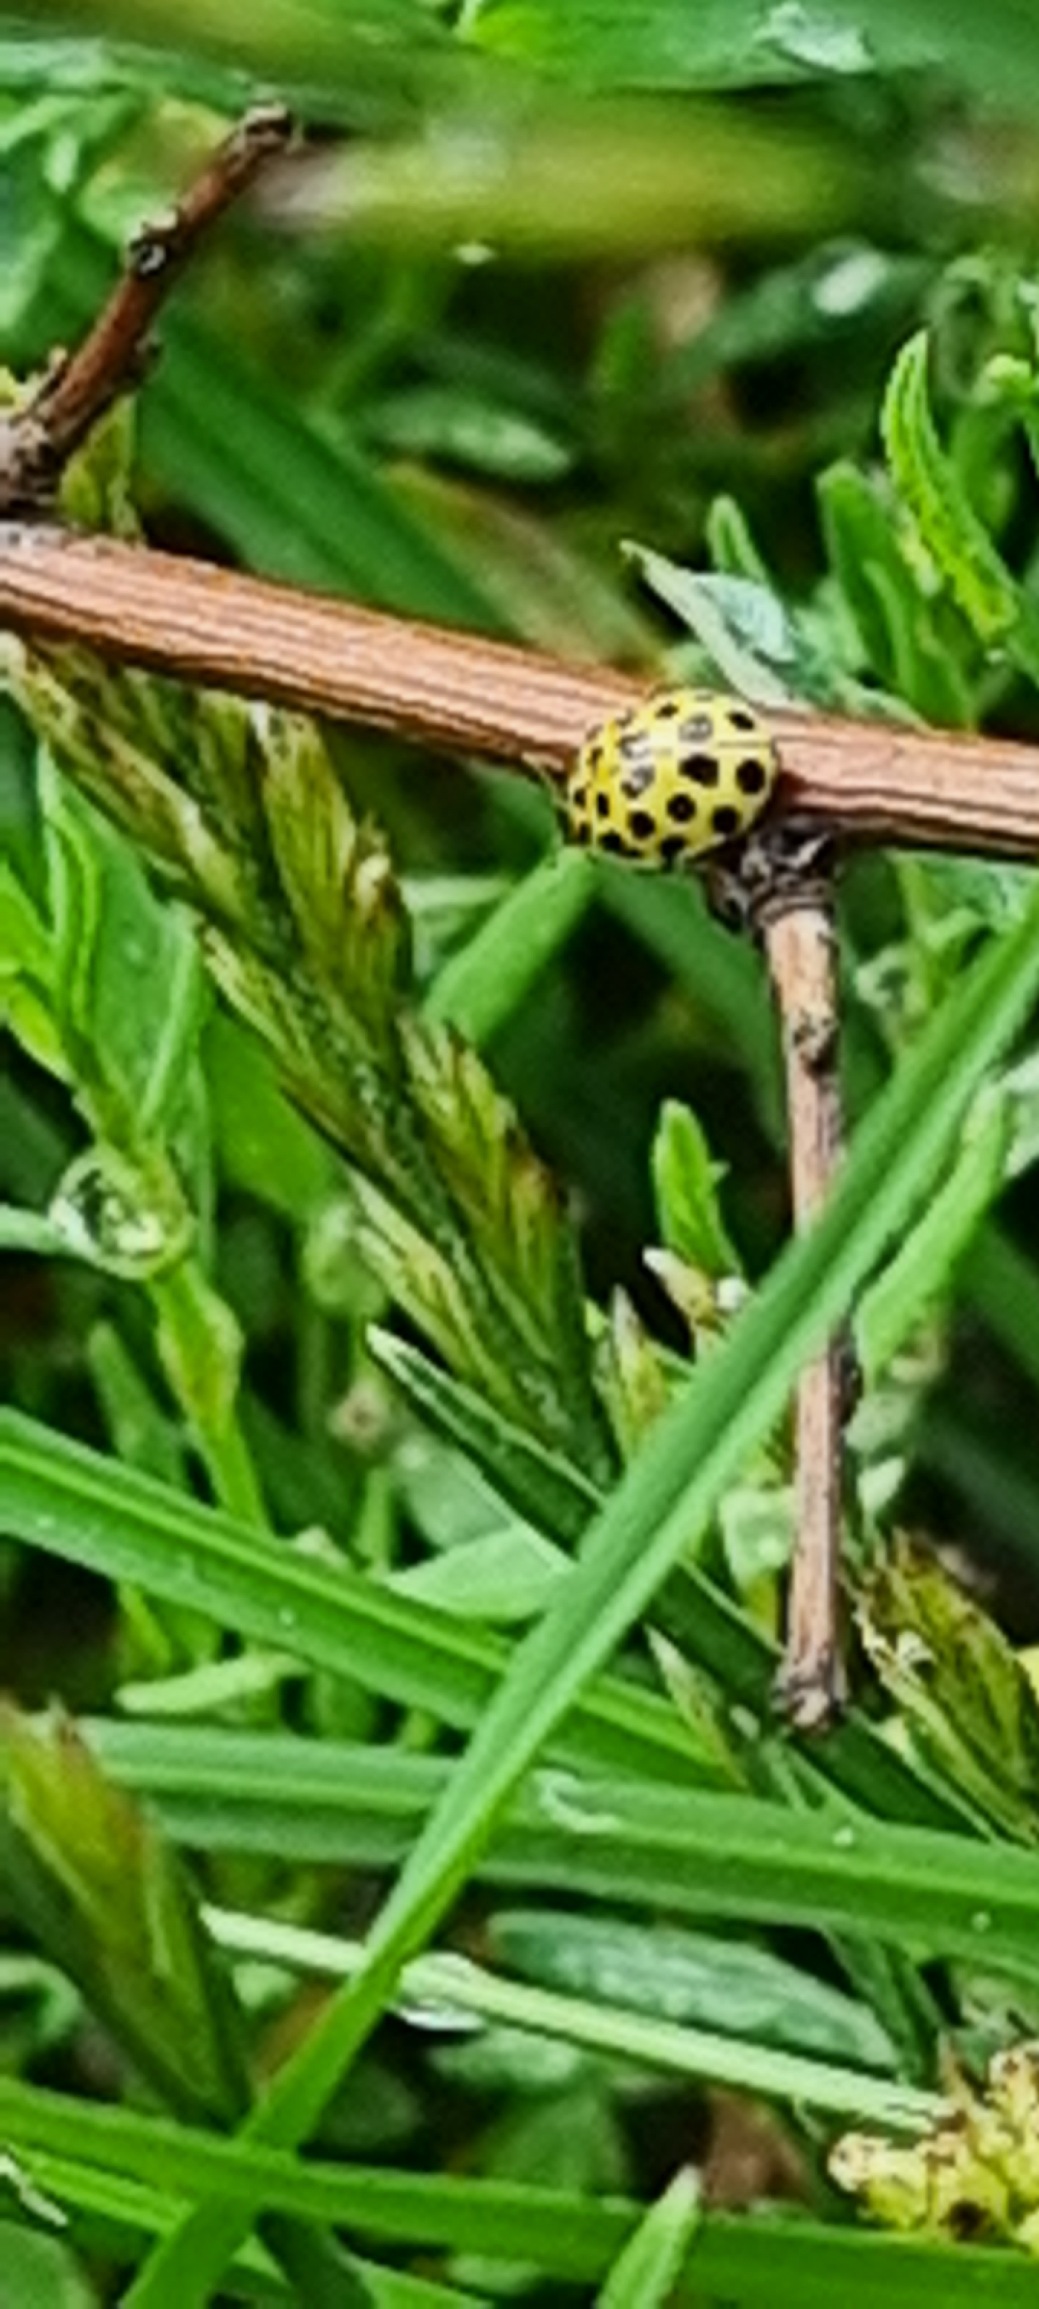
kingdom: Animalia
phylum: Arthropoda
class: Insecta
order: Coleoptera
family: Coccinellidae
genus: Psyllobora
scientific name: Psyllobora vigintiduopunctata
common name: Toogtyveplettet mariehøne
